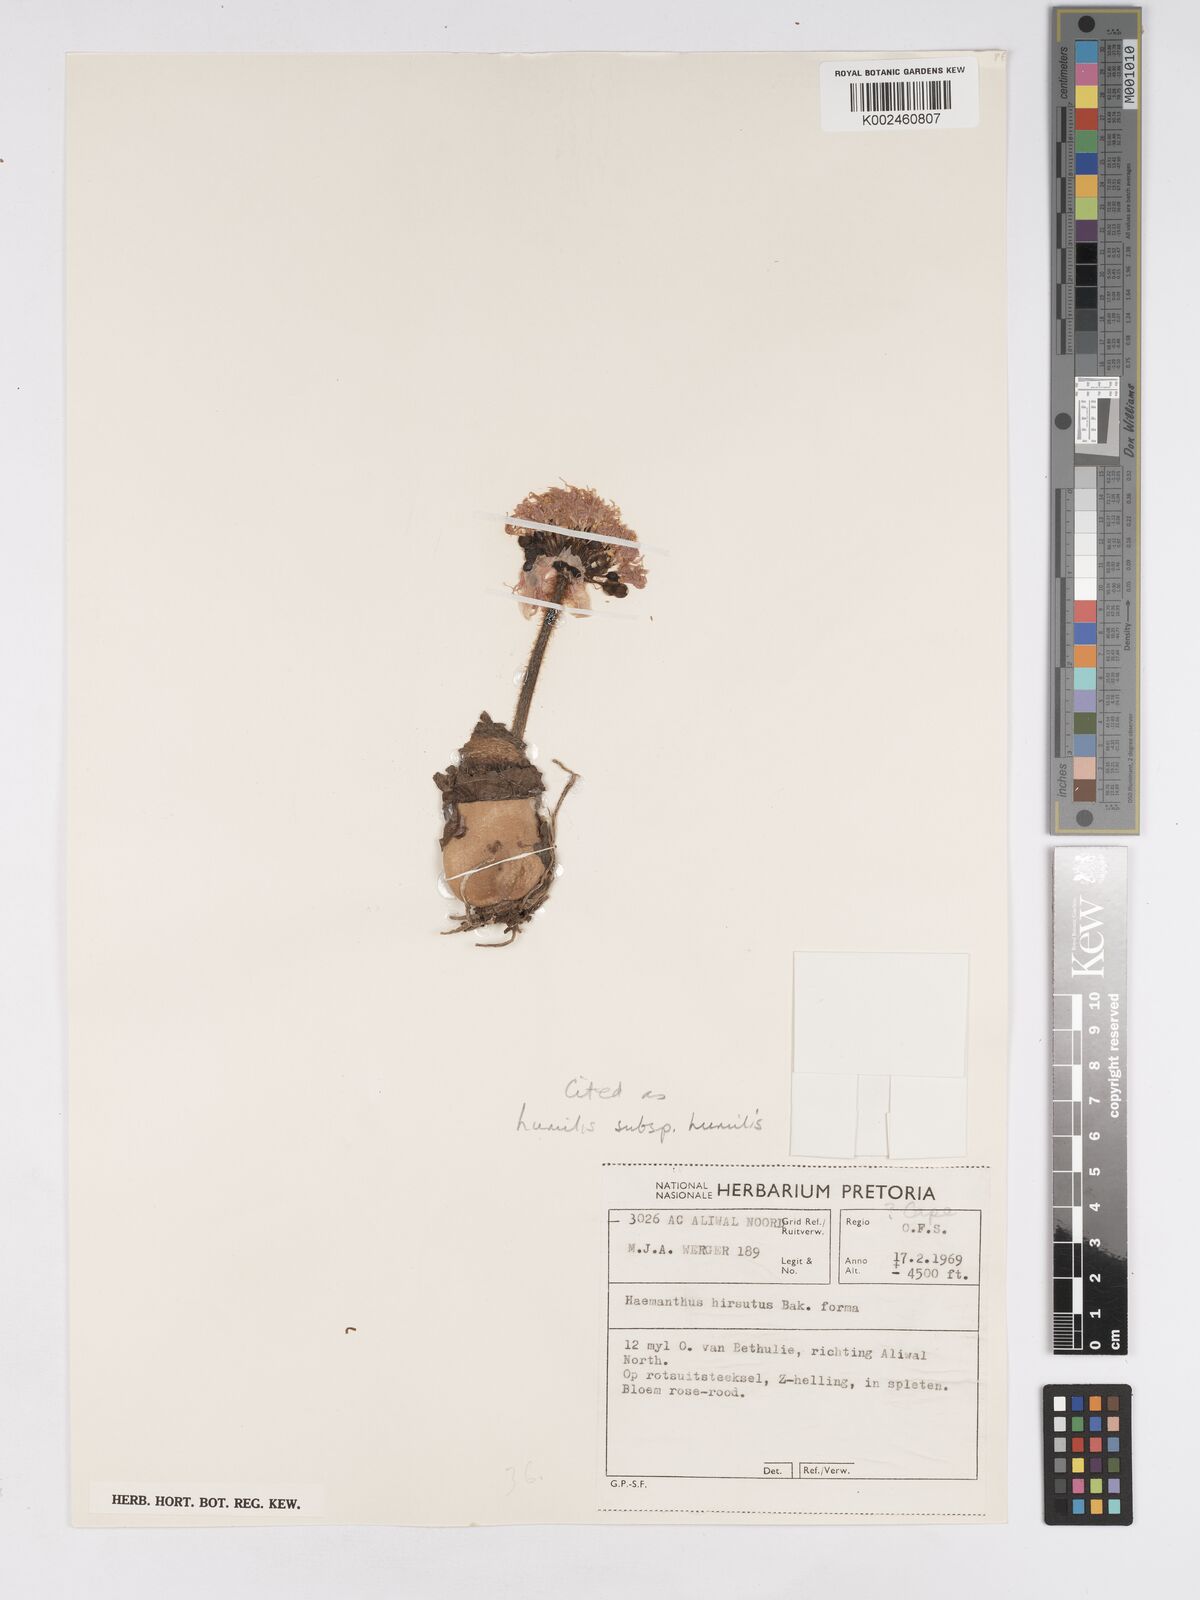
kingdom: Plantae
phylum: Tracheophyta
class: Liliopsida
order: Asparagales
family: Amaryllidaceae
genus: Haemanthus
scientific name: Haemanthus humilis
